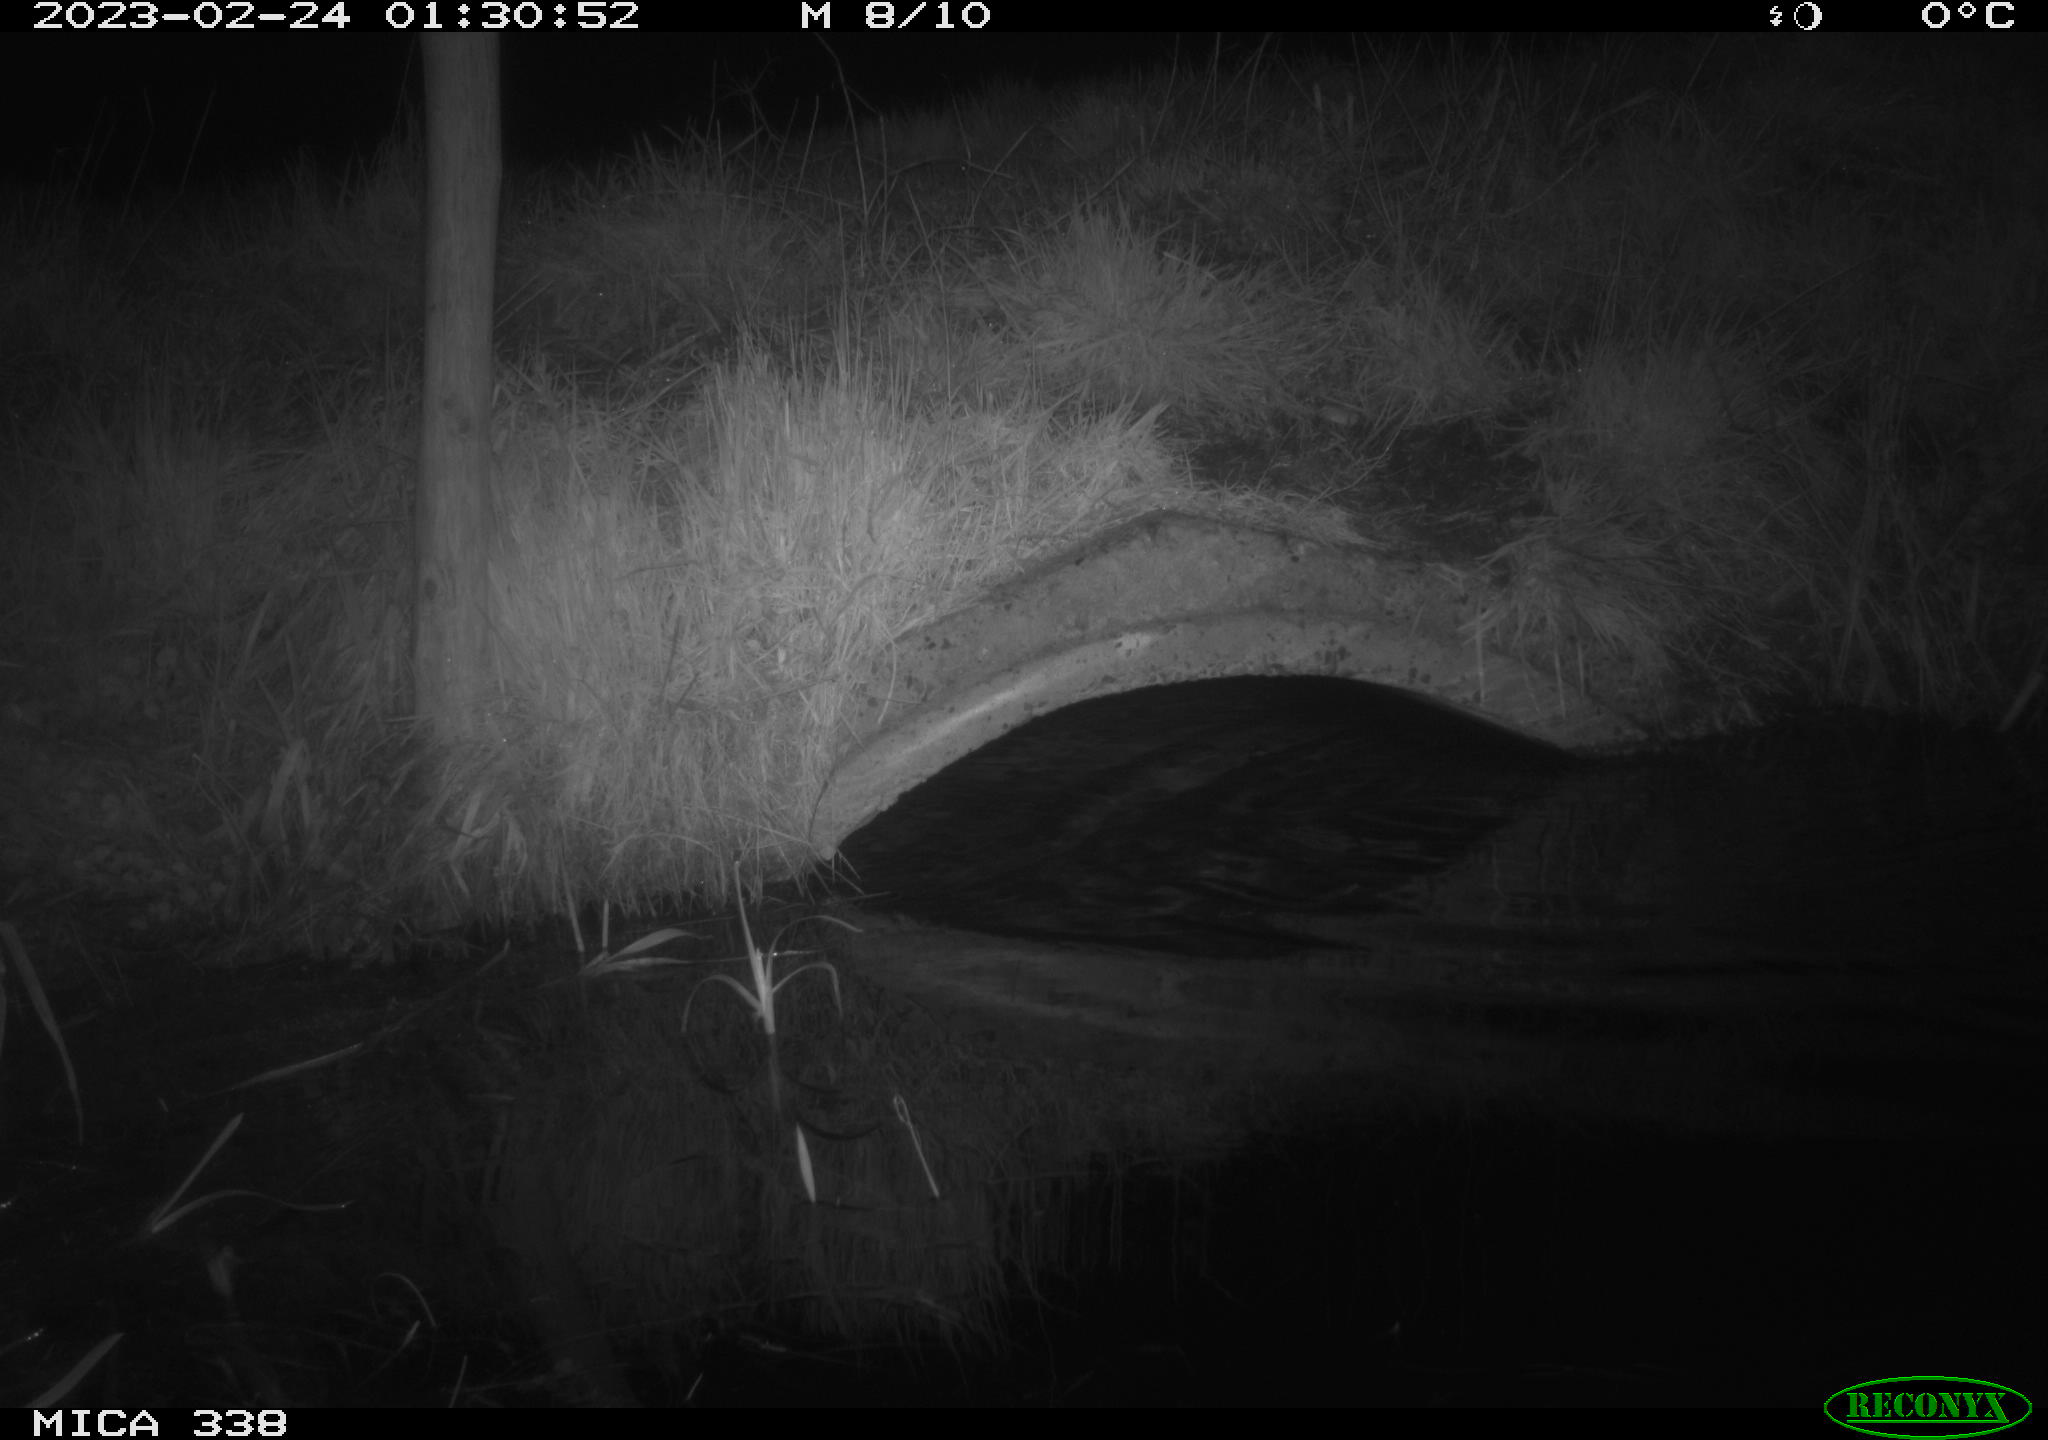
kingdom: Animalia
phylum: Chordata
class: Mammalia
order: Carnivora
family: Mustelidae
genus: Lutra
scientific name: Lutra lutra
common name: European otter
